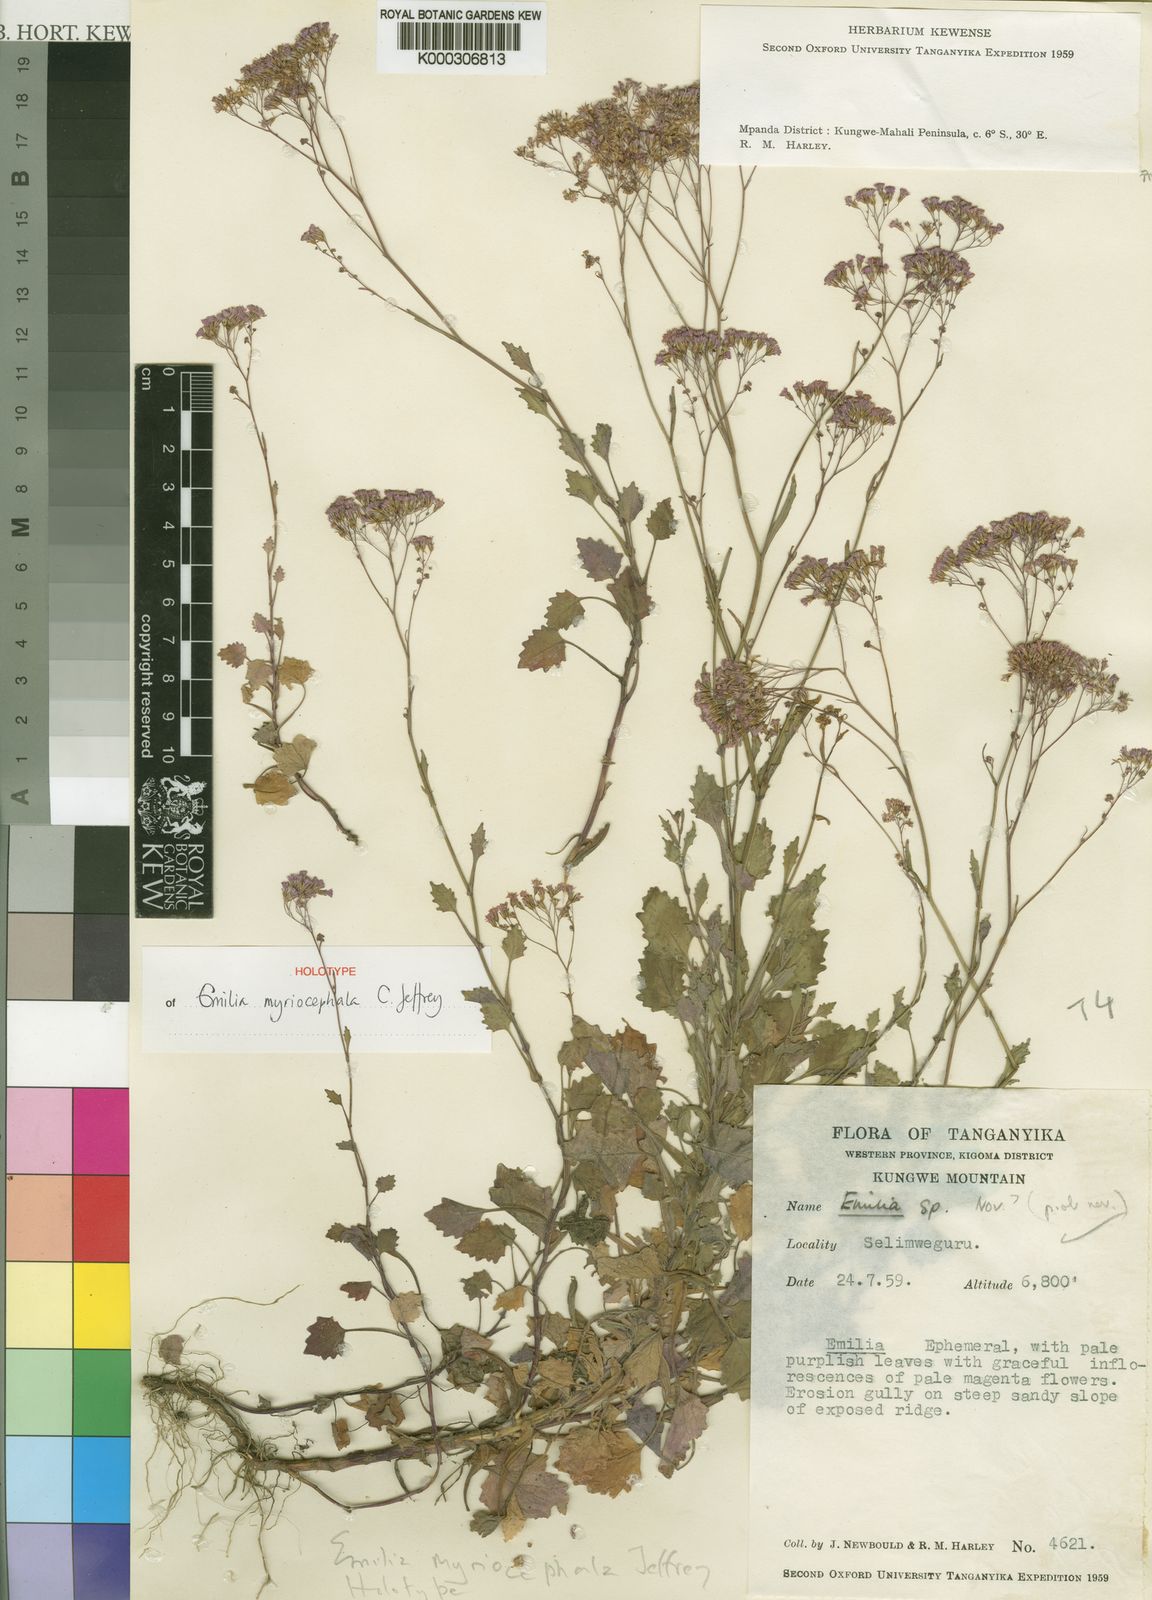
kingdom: Plantae
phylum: Tracheophyta
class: Magnoliopsida
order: Asterales
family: Asteraceae
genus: Emilia
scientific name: Emilia myriocephala
